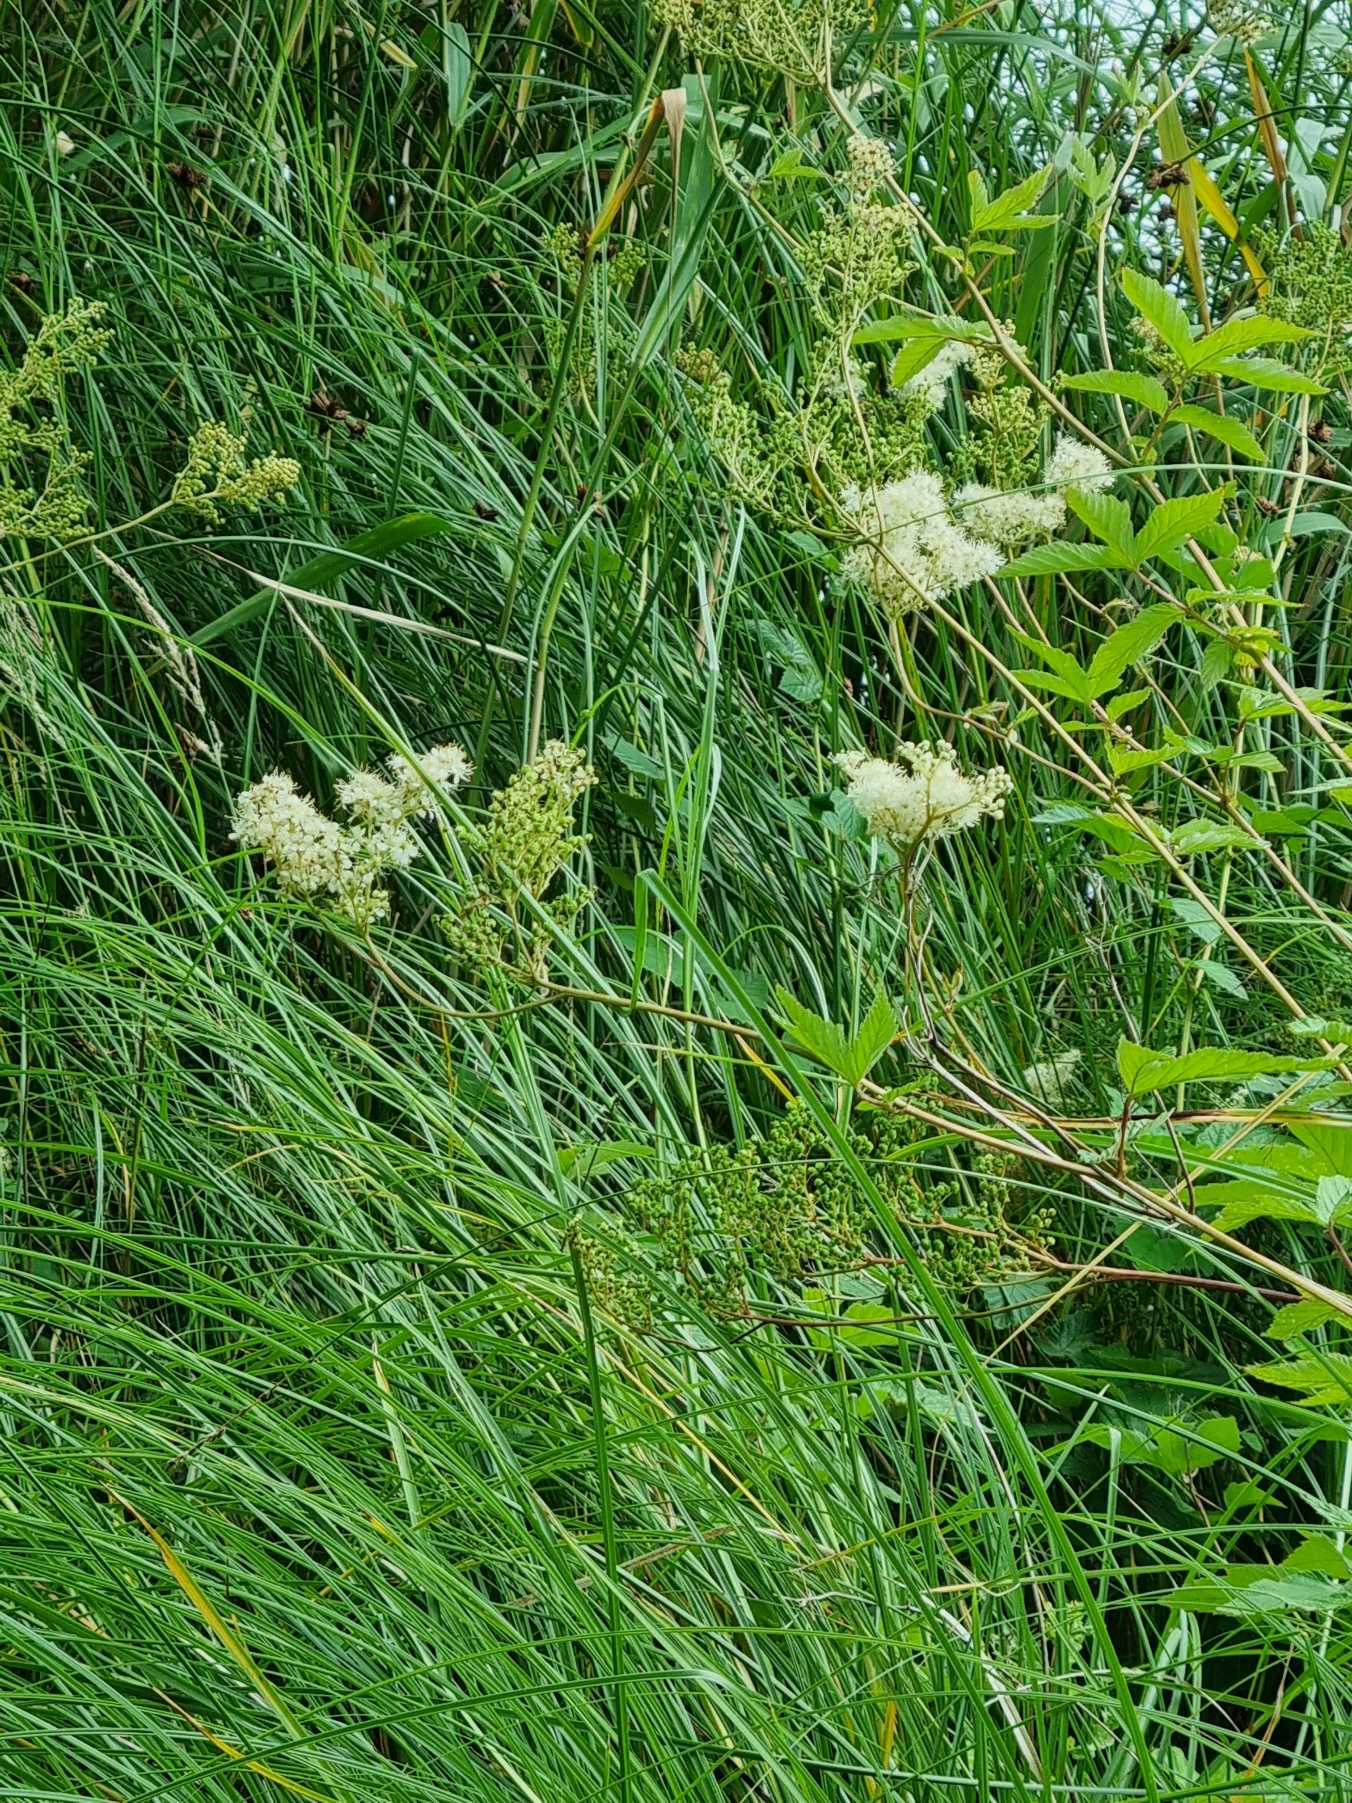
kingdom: Plantae
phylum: Tracheophyta
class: Magnoliopsida
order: Rosales
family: Rosaceae
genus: Filipendula
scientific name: Filipendula ulmaria
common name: Almindelig mjødurt
